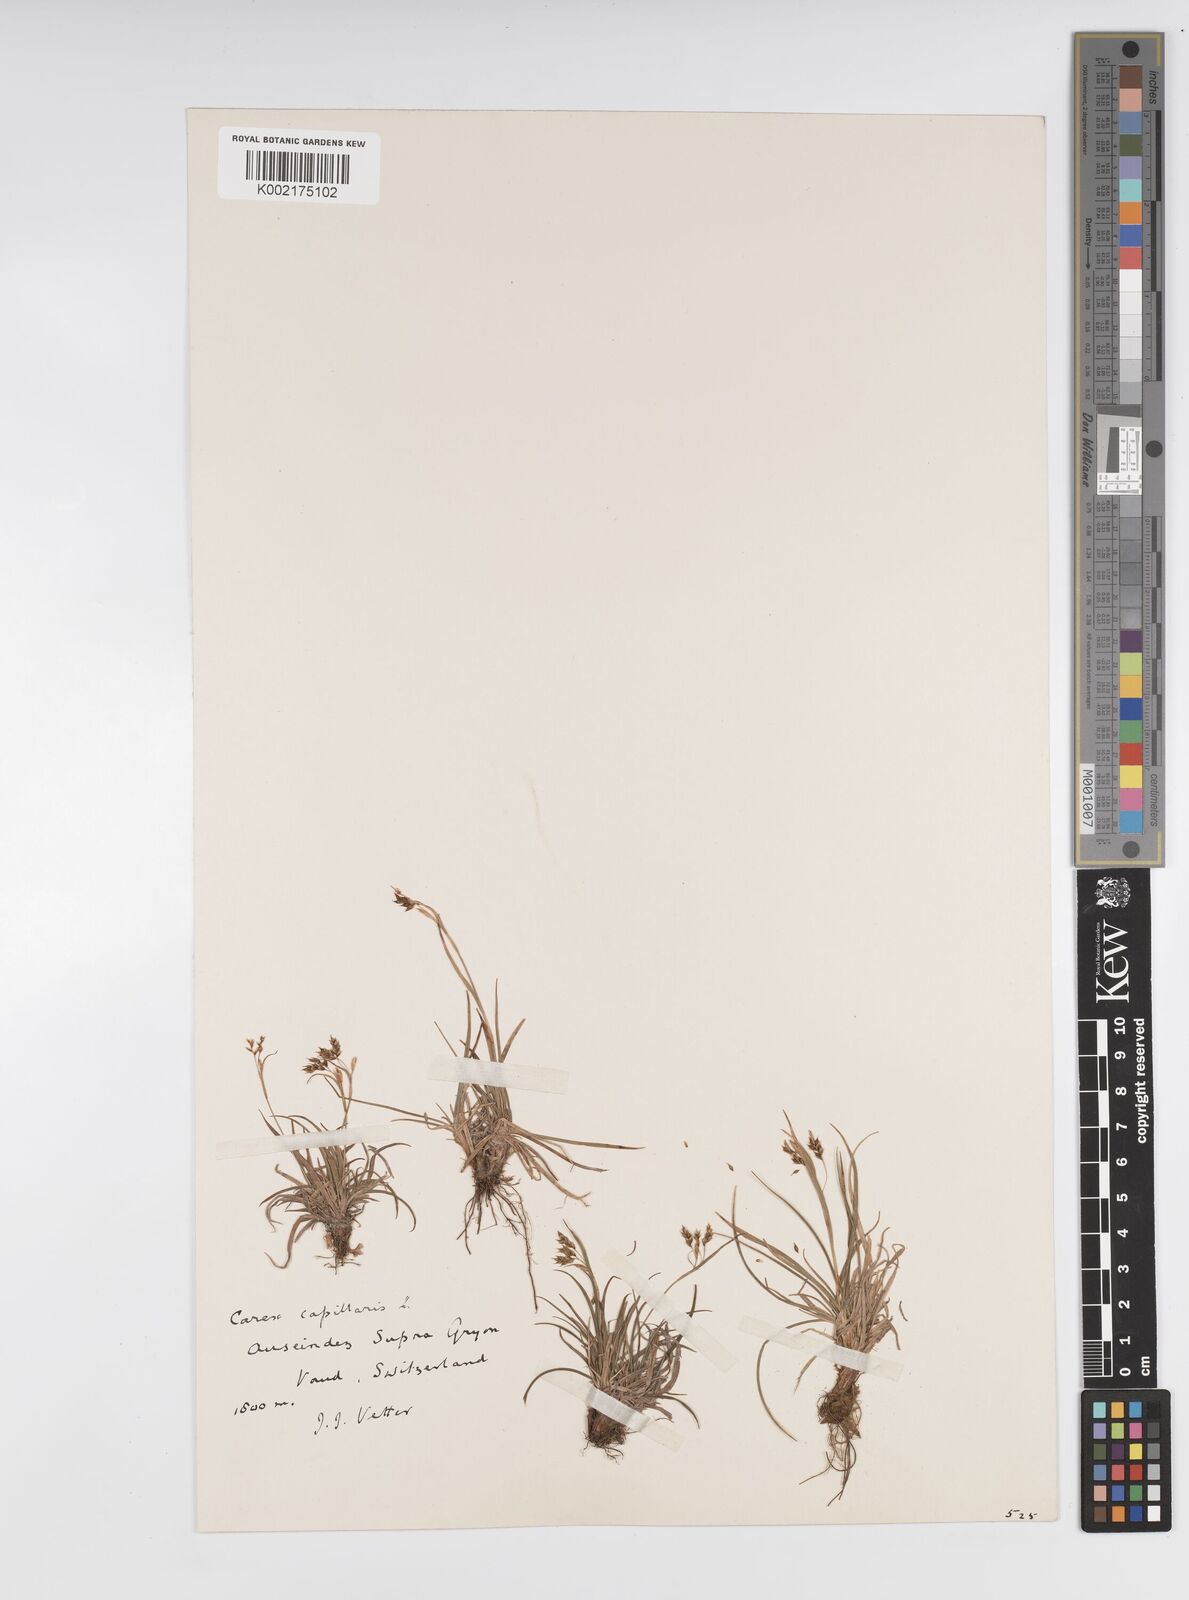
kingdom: Plantae
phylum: Tracheophyta
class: Liliopsida
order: Poales
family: Cyperaceae
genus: Carex
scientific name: Carex capillaris
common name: Hair sedge
